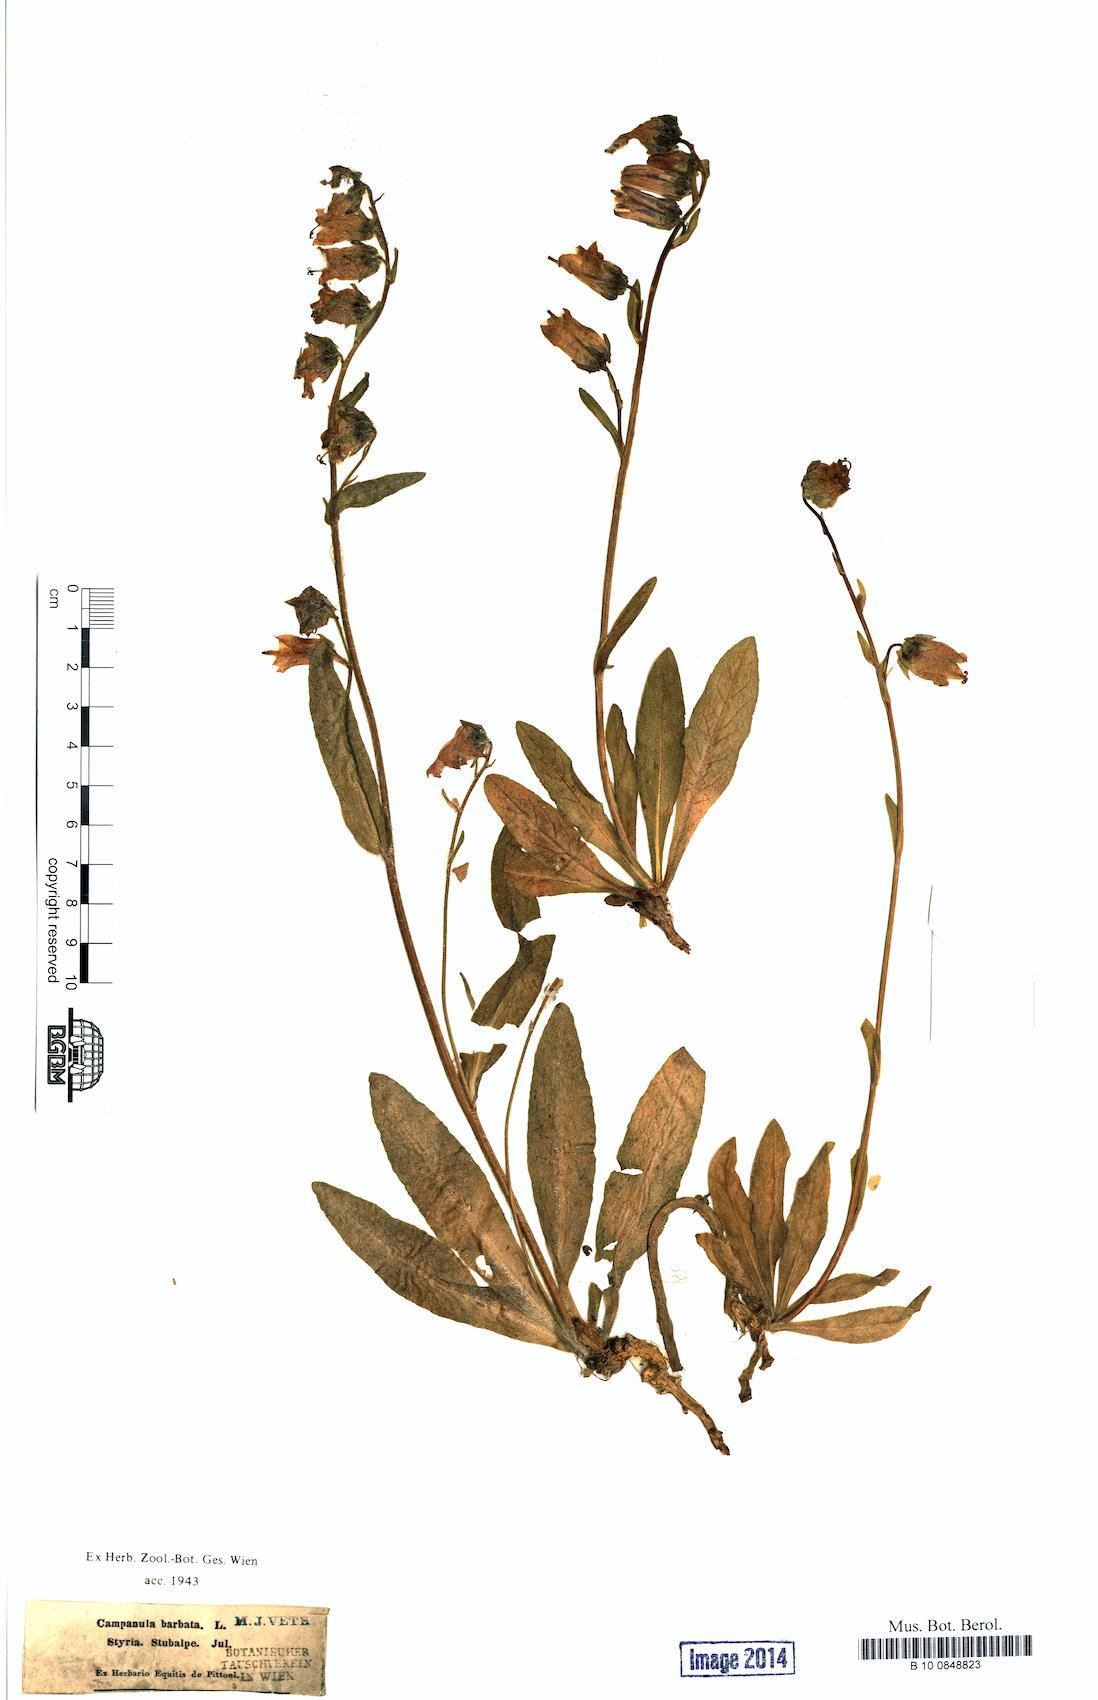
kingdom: Plantae
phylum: Tracheophyta
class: Magnoliopsida
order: Asterales
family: Campanulaceae
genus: Campanula
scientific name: Campanula barbata
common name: Bearded bellflower
